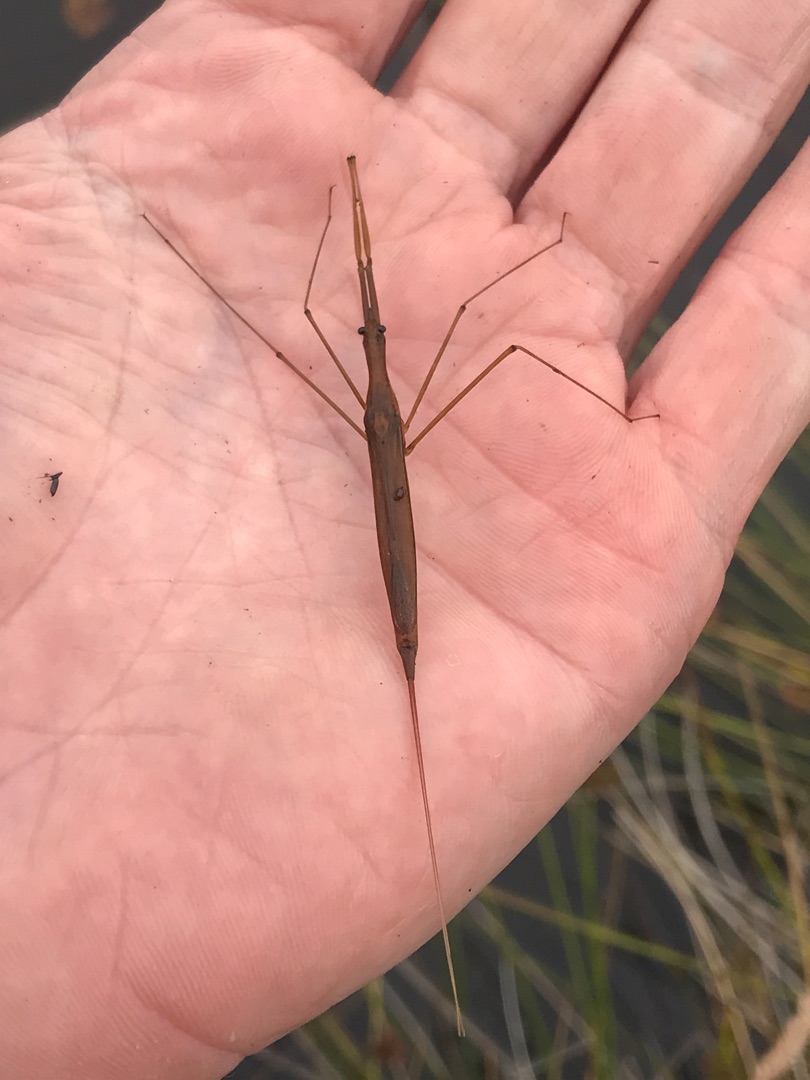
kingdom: Animalia
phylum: Arthropoda
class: Insecta
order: Hemiptera
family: Nepidae
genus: Ranatra
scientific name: Ranatra linearis
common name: Stavtæge
